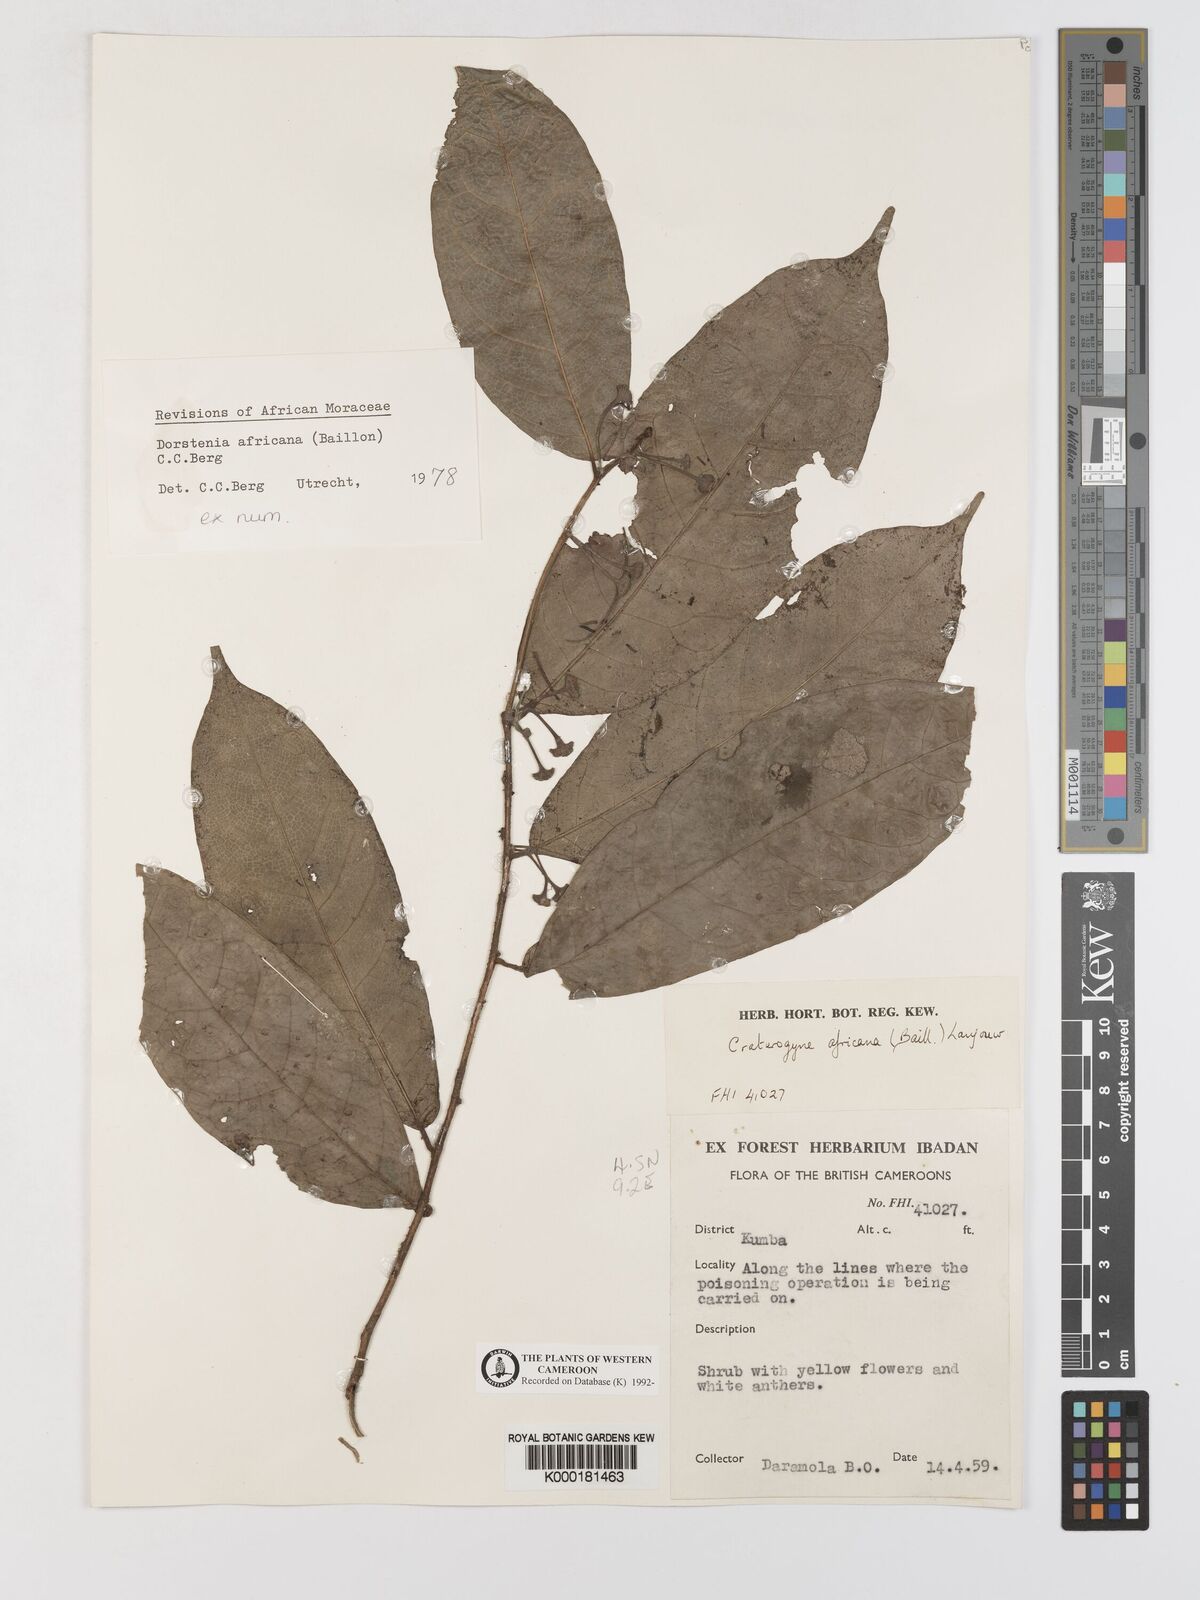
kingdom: Plantae
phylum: Tracheophyta
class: Magnoliopsida
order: Rosales
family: Moraceae
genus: Dorstenia
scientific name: Dorstenia africana
